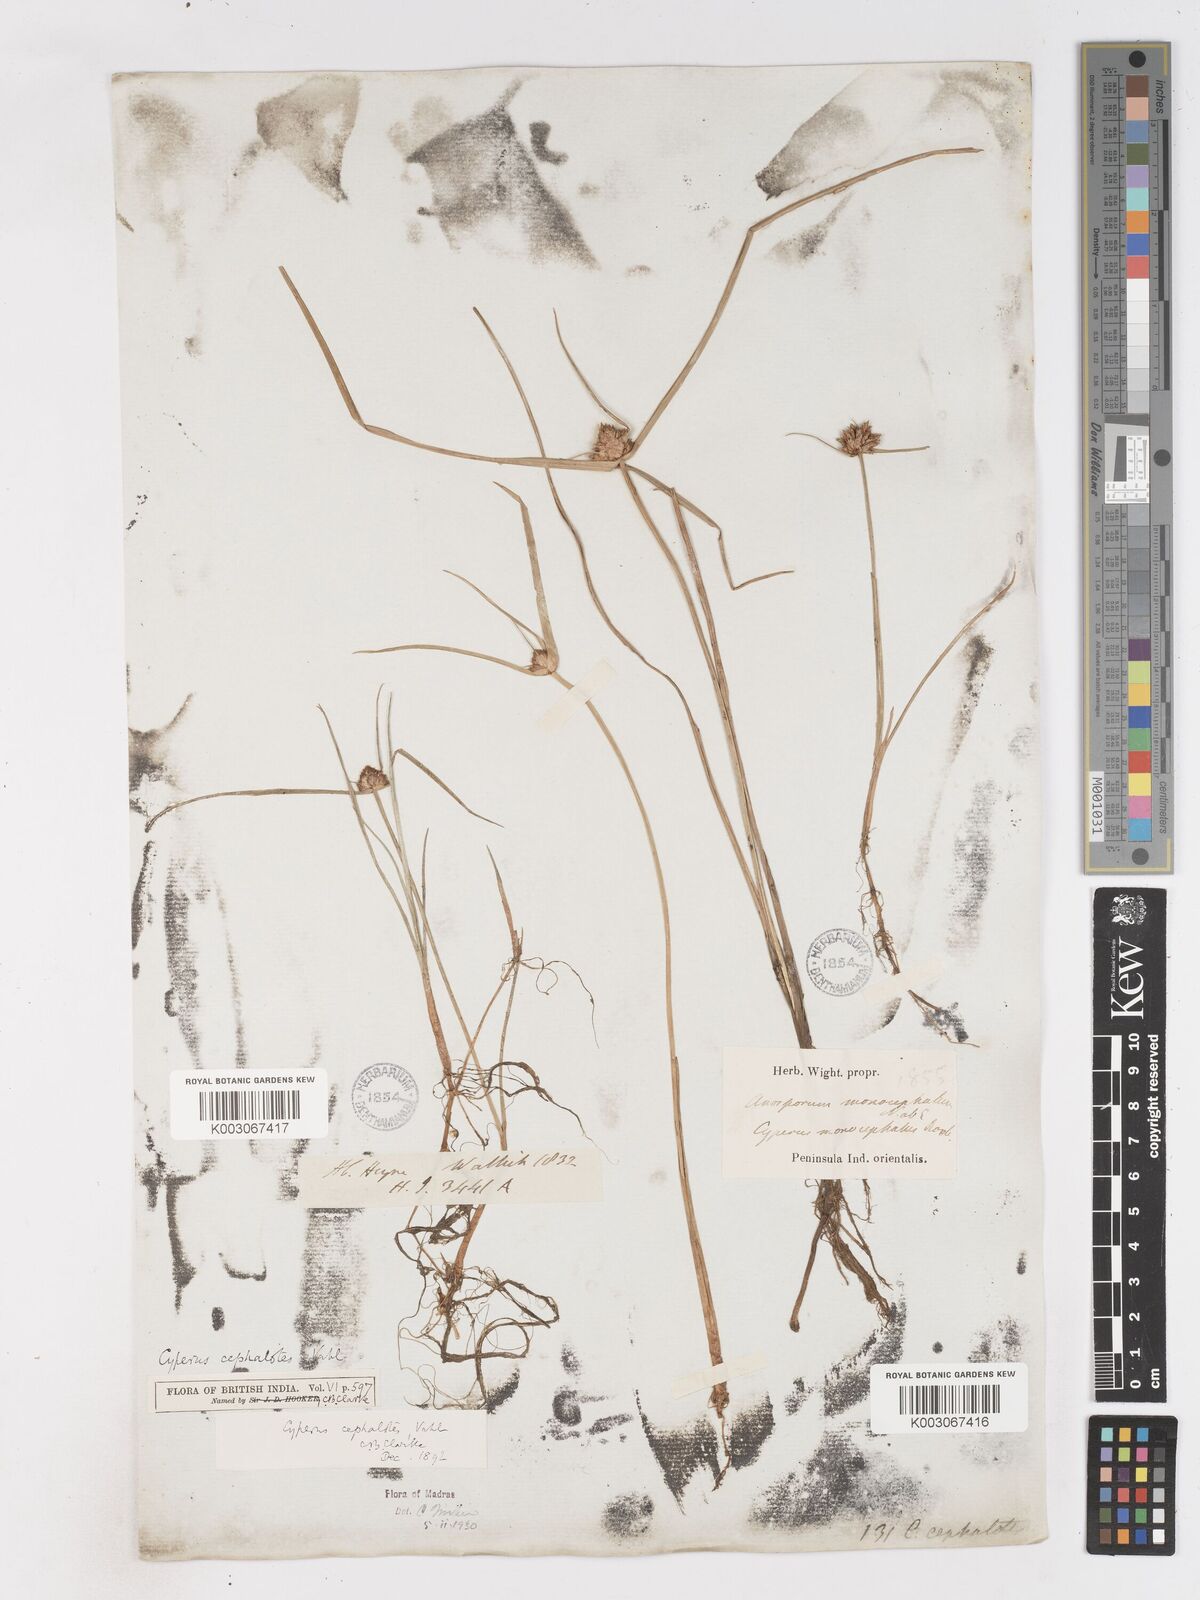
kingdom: Plantae
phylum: Tracheophyta
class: Liliopsida
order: Poales
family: Cyperaceae
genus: Cyperus
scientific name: Cyperus cephalotes
